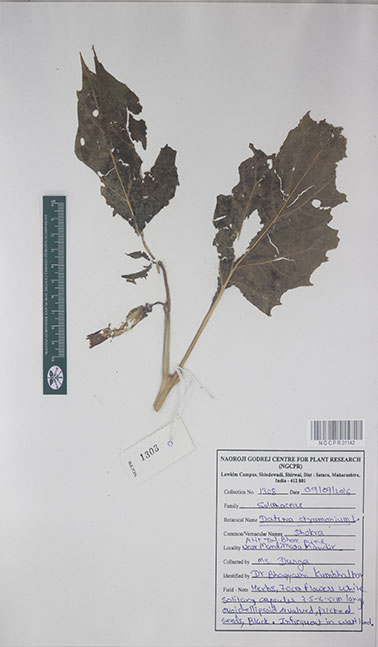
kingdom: Plantae
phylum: Tracheophyta
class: Magnoliopsida
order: Solanales
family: Solanaceae
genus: Datura
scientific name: Datura stramonium
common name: Thorn-apple
